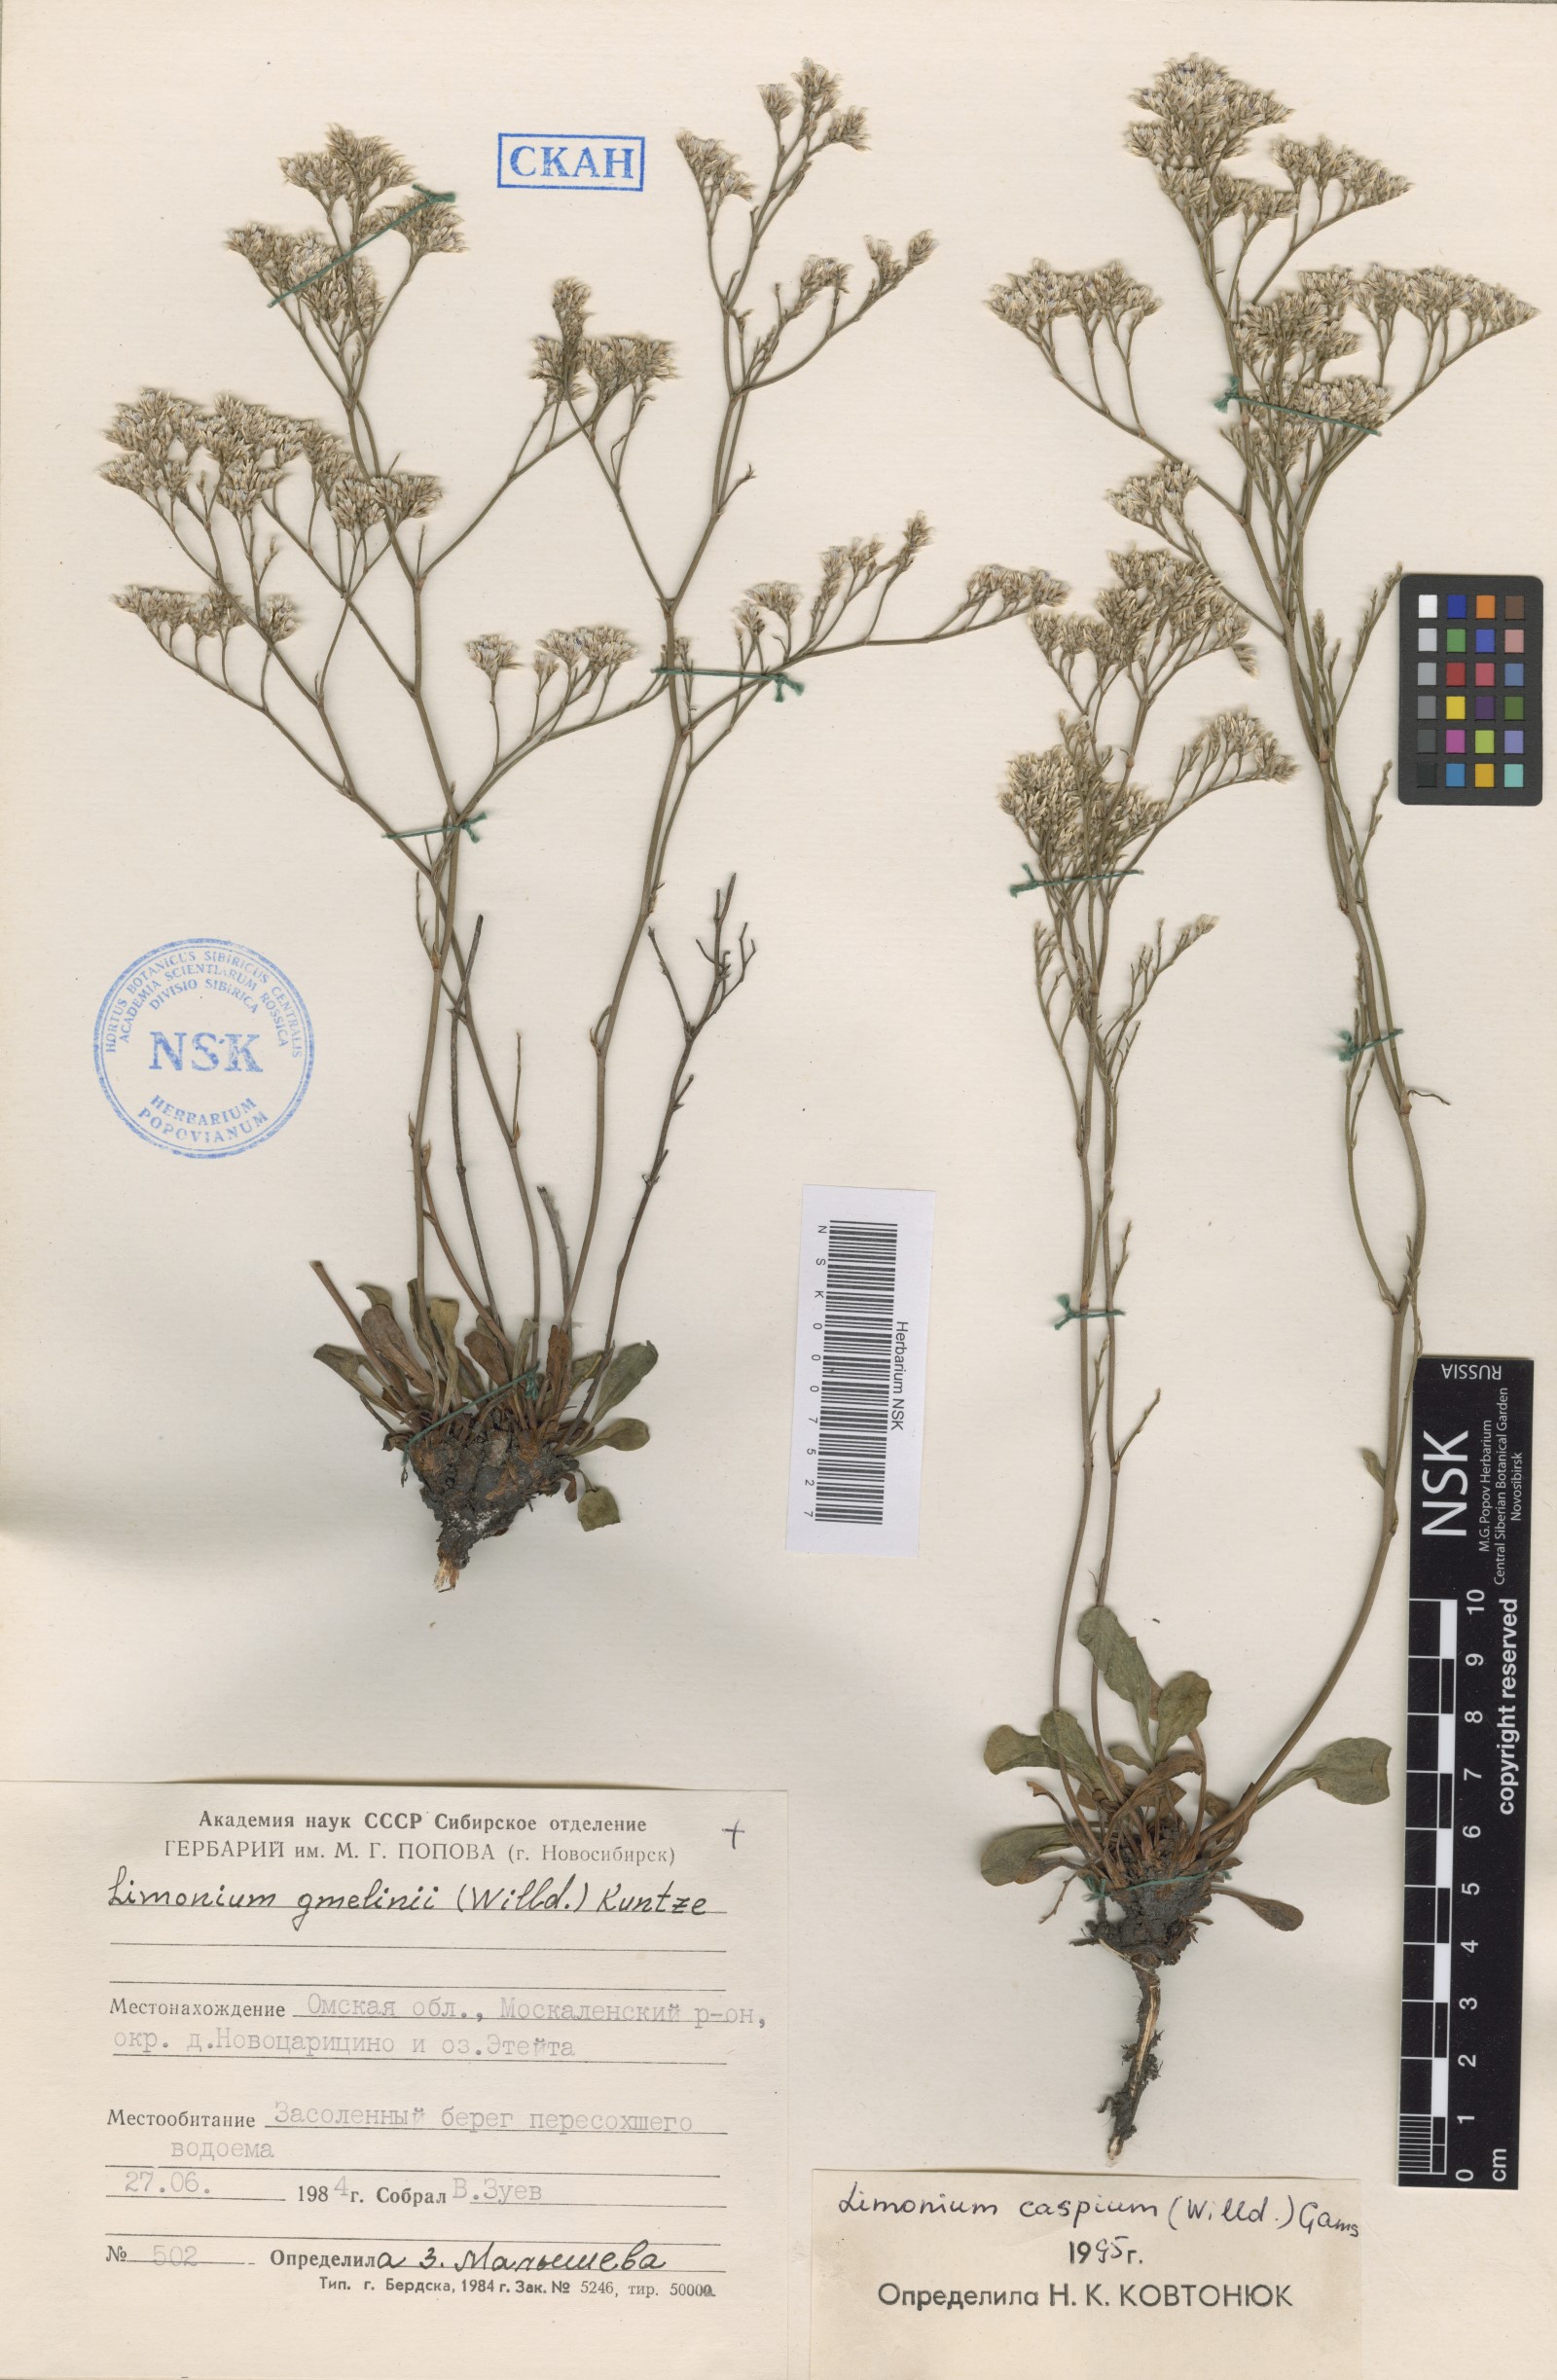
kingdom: Plantae
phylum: Tracheophyta
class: Magnoliopsida
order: Caryophyllales
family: Plumbaginaceae
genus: Limonium
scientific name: Limonium bellidifolium
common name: Matted sea-lavender
